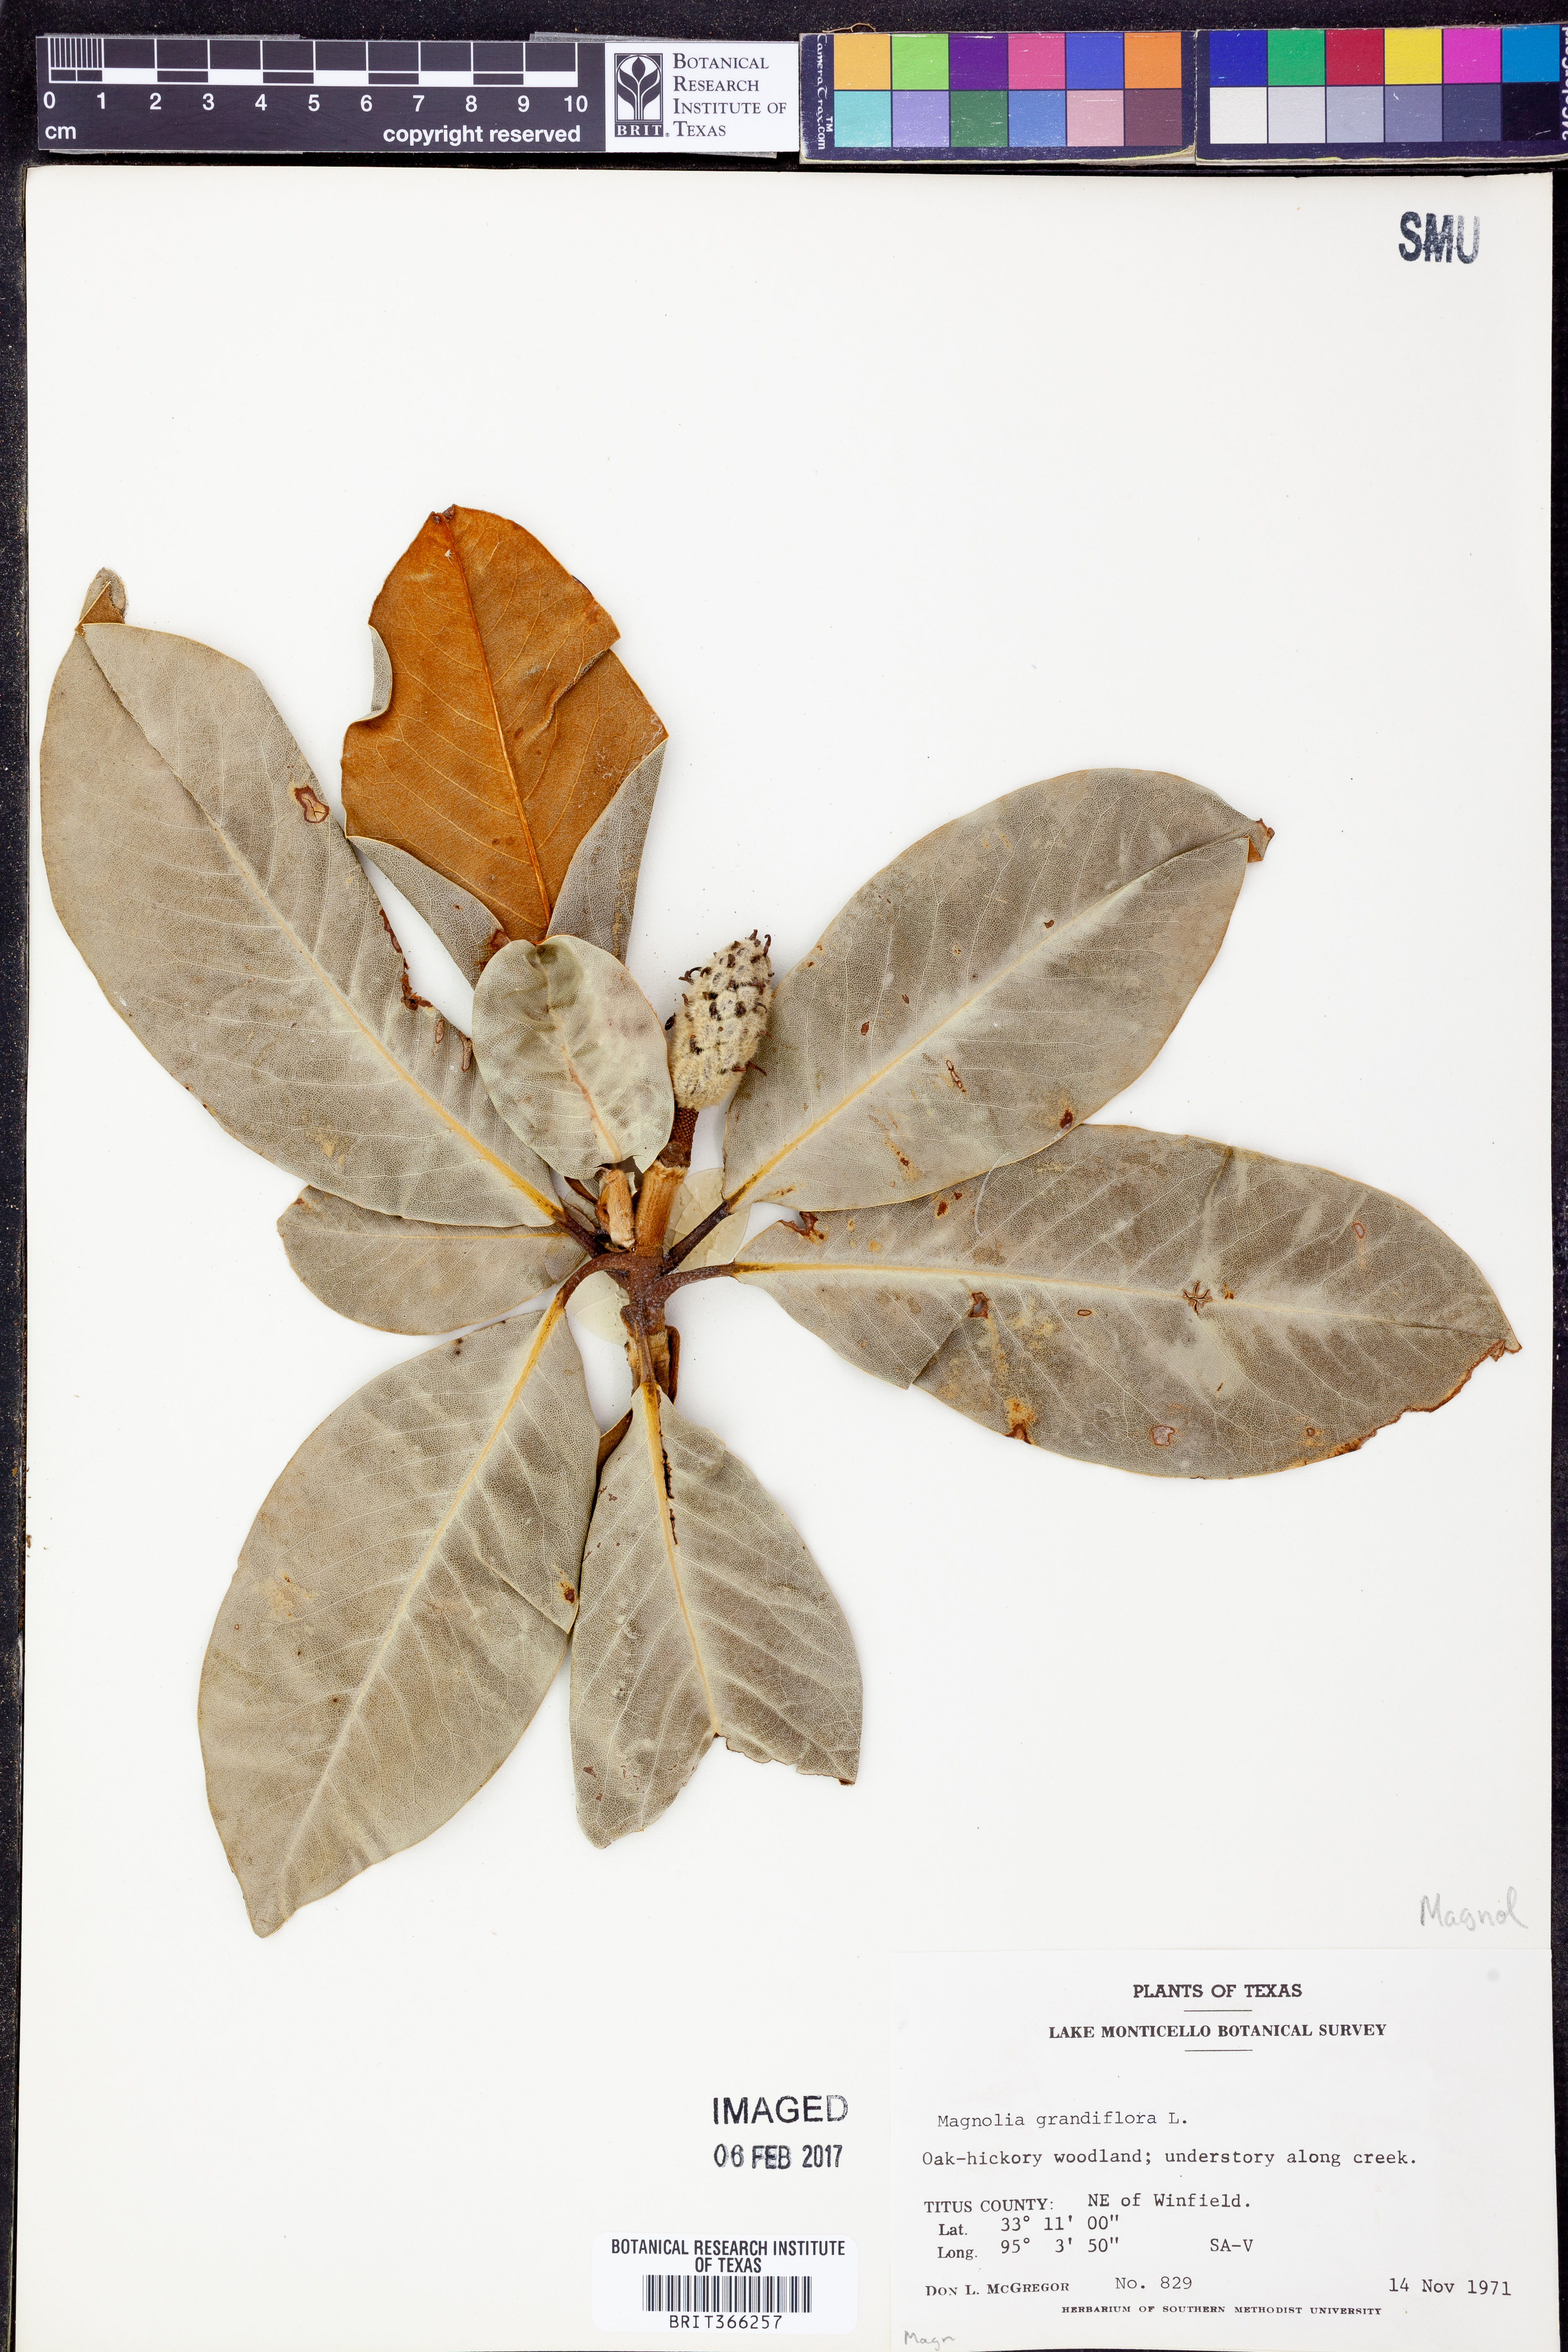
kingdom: Plantae
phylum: Tracheophyta
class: Magnoliopsida
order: Magnoliales
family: Magnoliaceae
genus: Magnolia
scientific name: Magnolia grandiflora
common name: Southern magnolia
